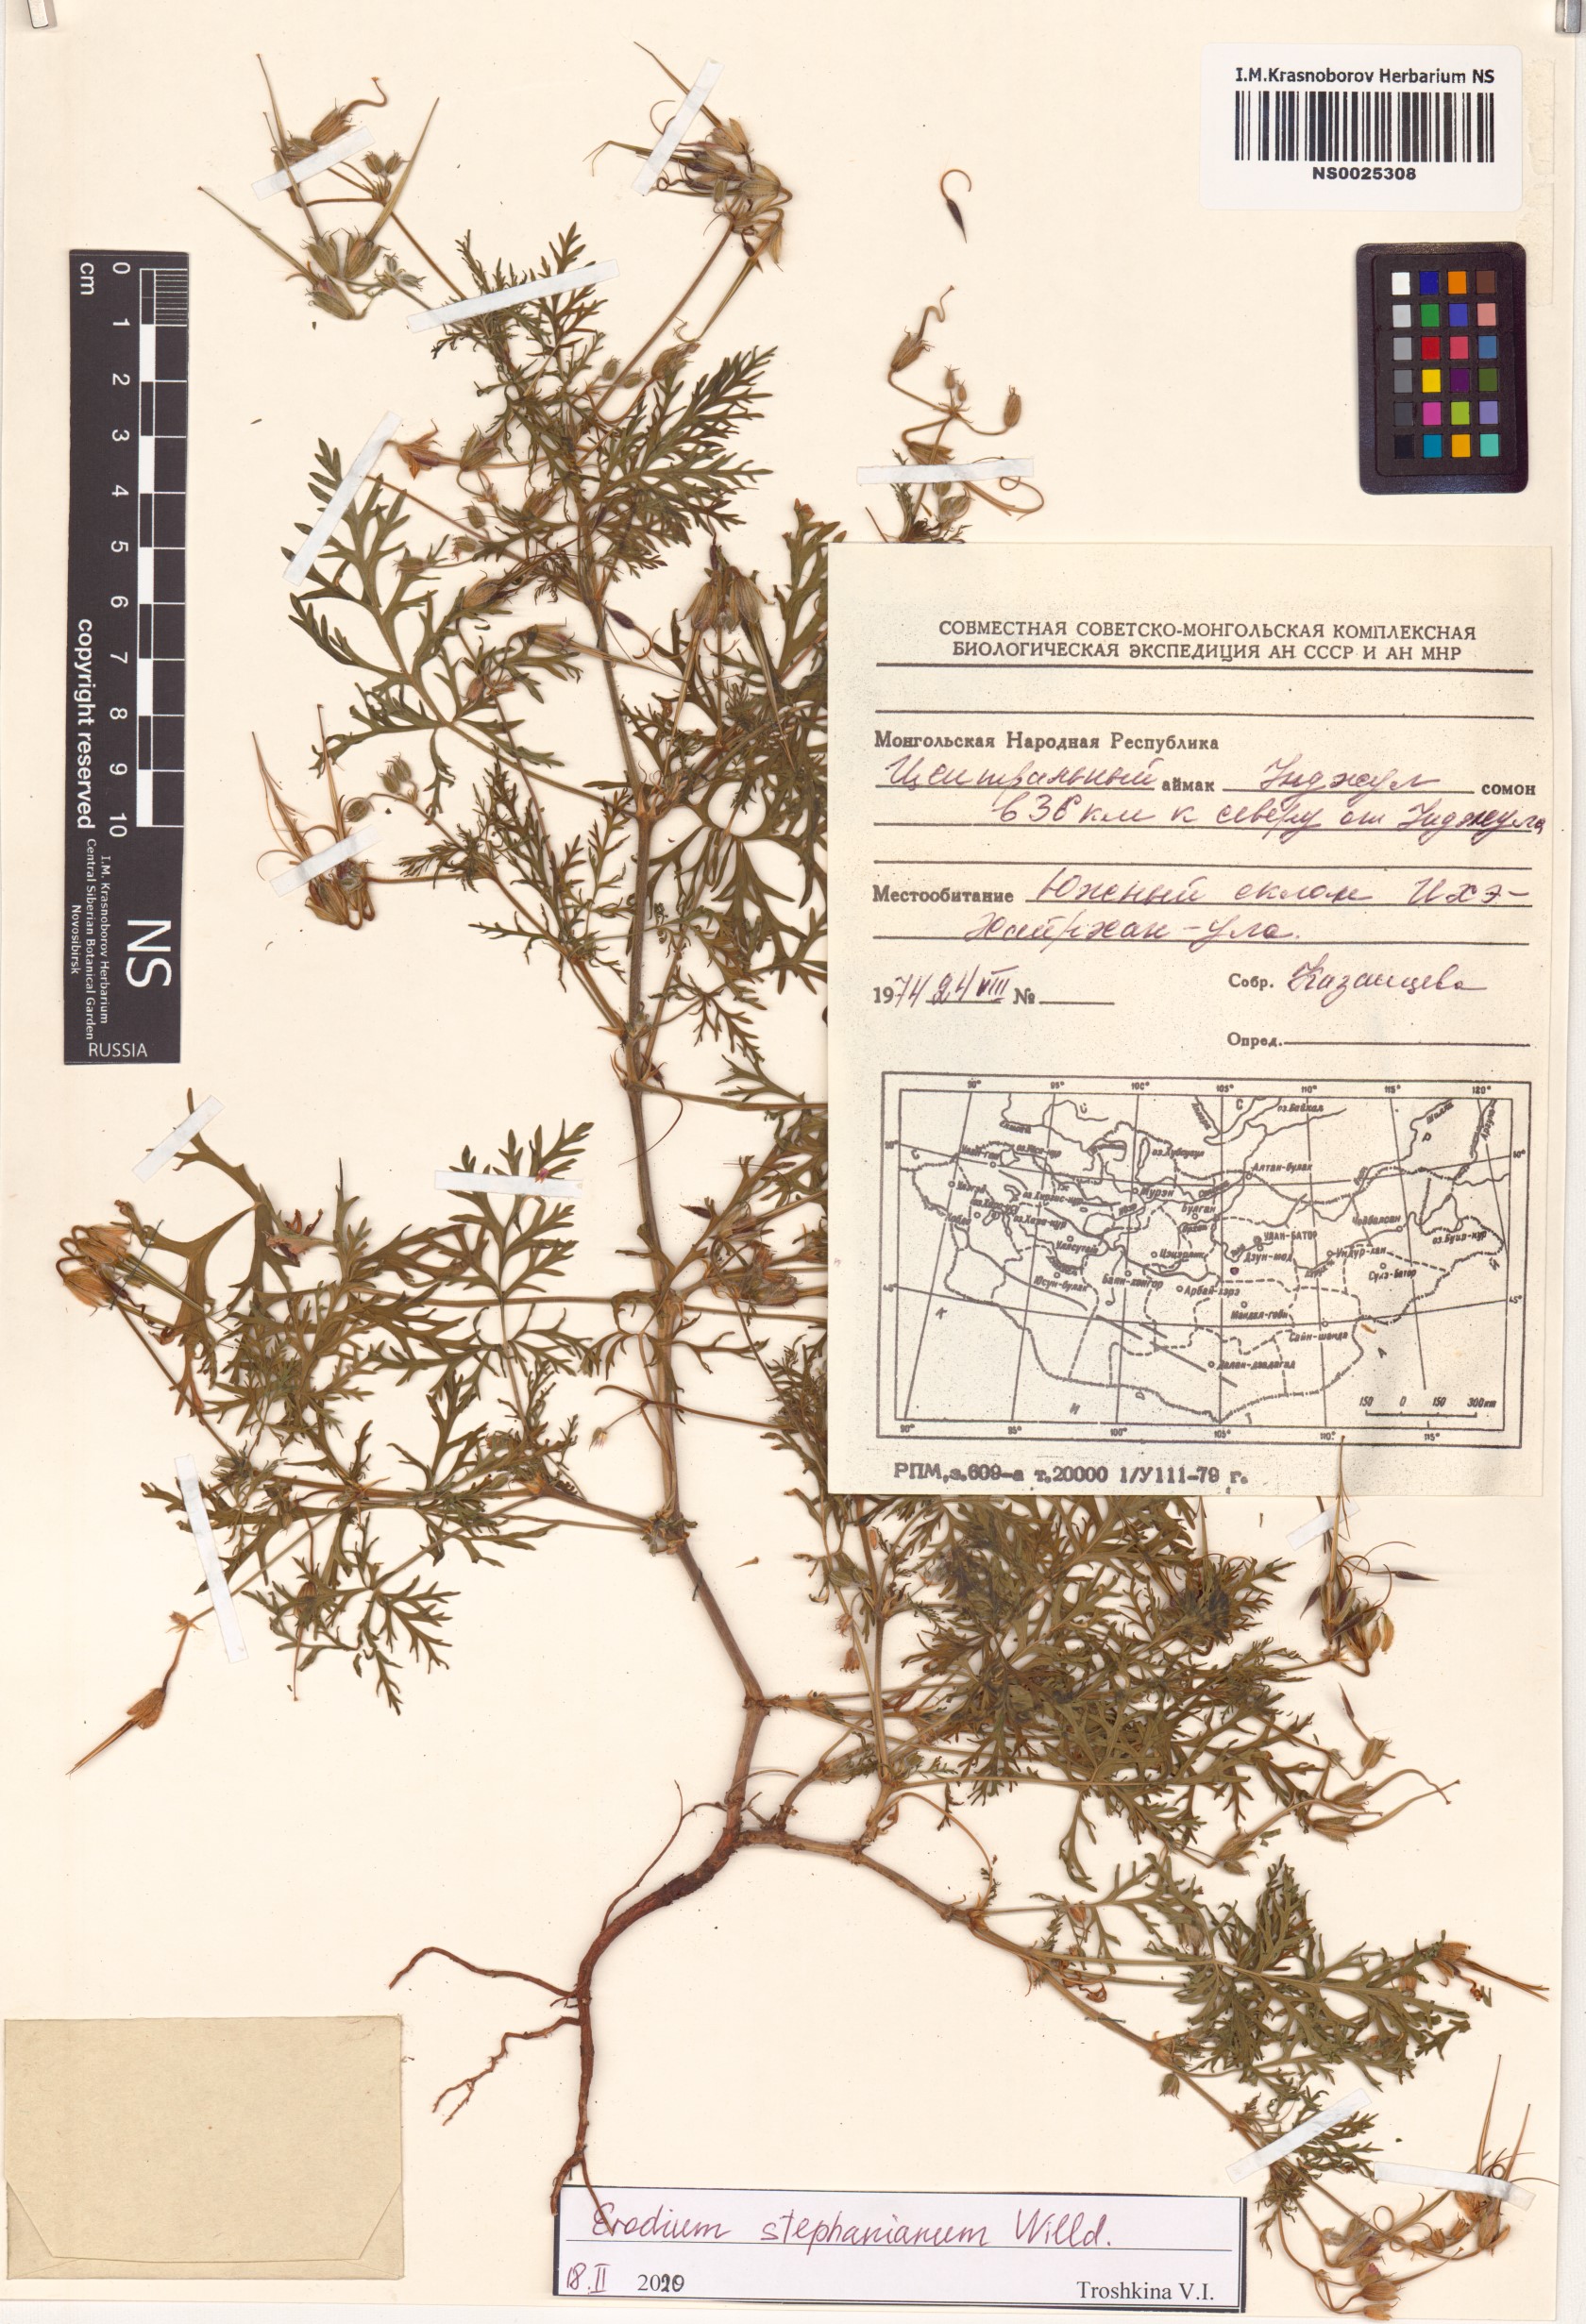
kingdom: Plantae
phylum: Tracheophyta
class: Magnoliopsida
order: Geraniales
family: Geraniaceae
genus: Erodium
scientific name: Erodium stephanianum
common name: Stephen's stork's bill
